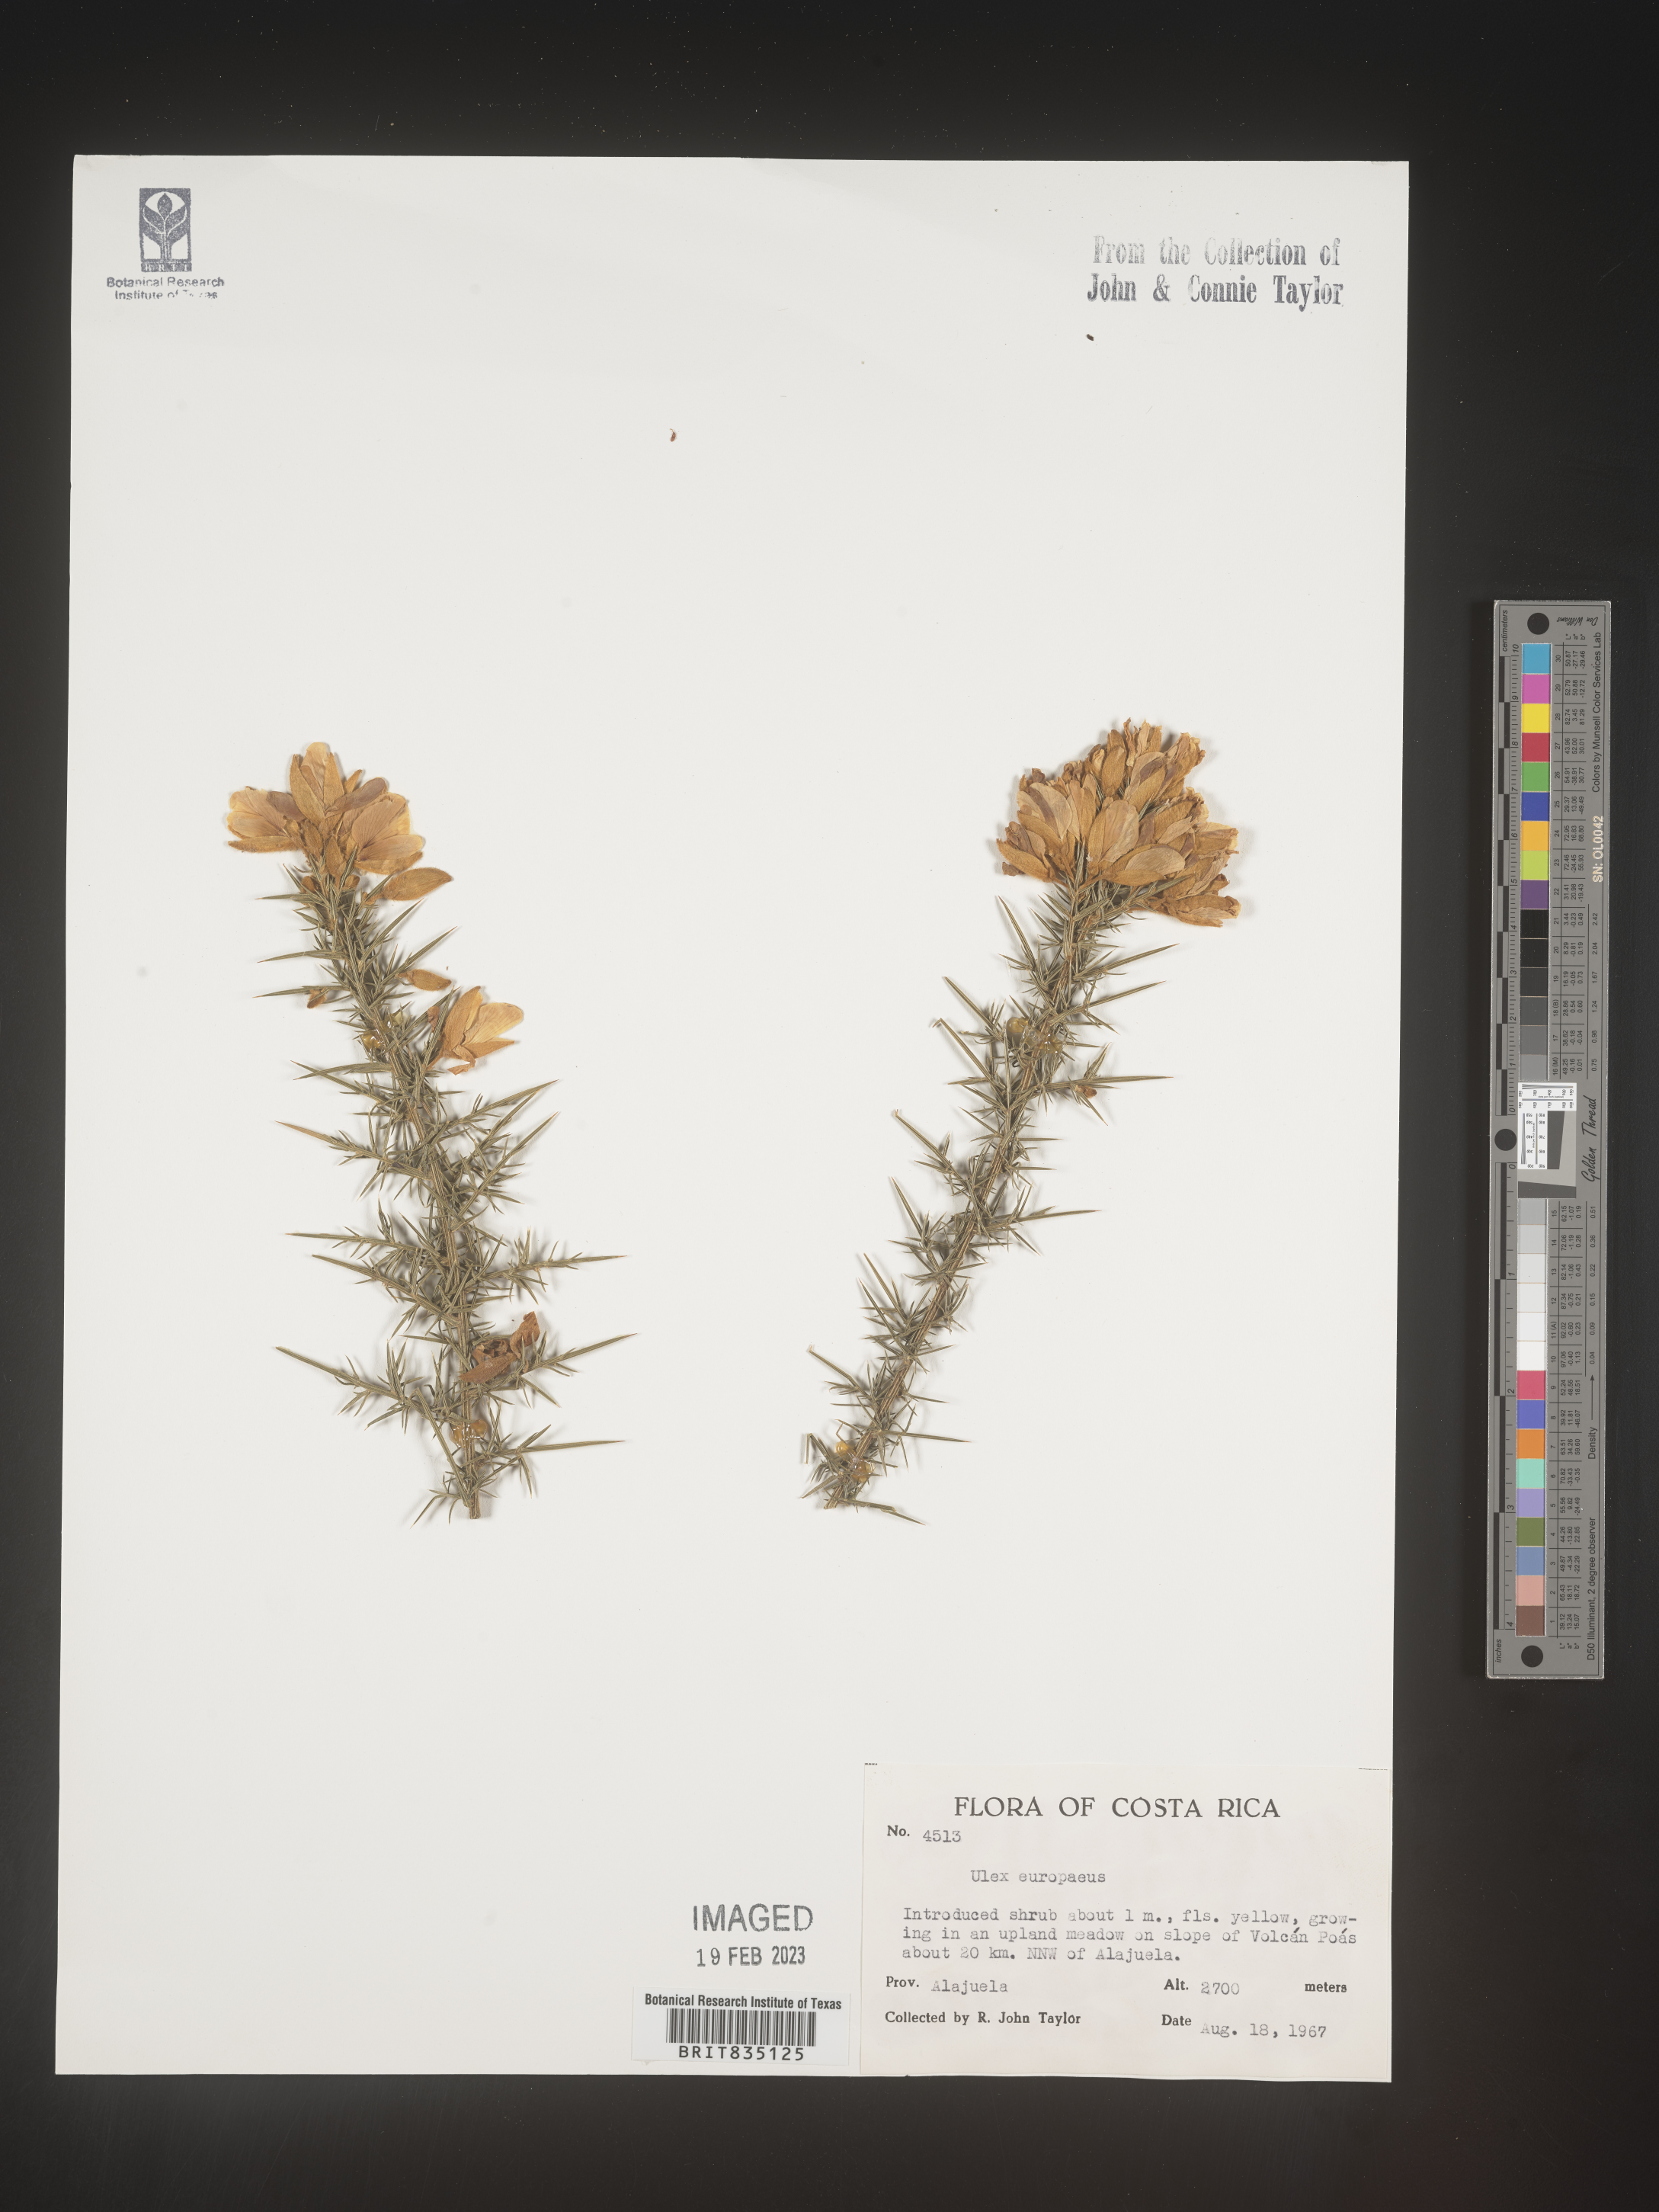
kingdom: Plantae
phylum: Tracheophyta
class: Magnoliopsida
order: Fabales
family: Fabaceae
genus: Ulex
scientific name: Ulex
